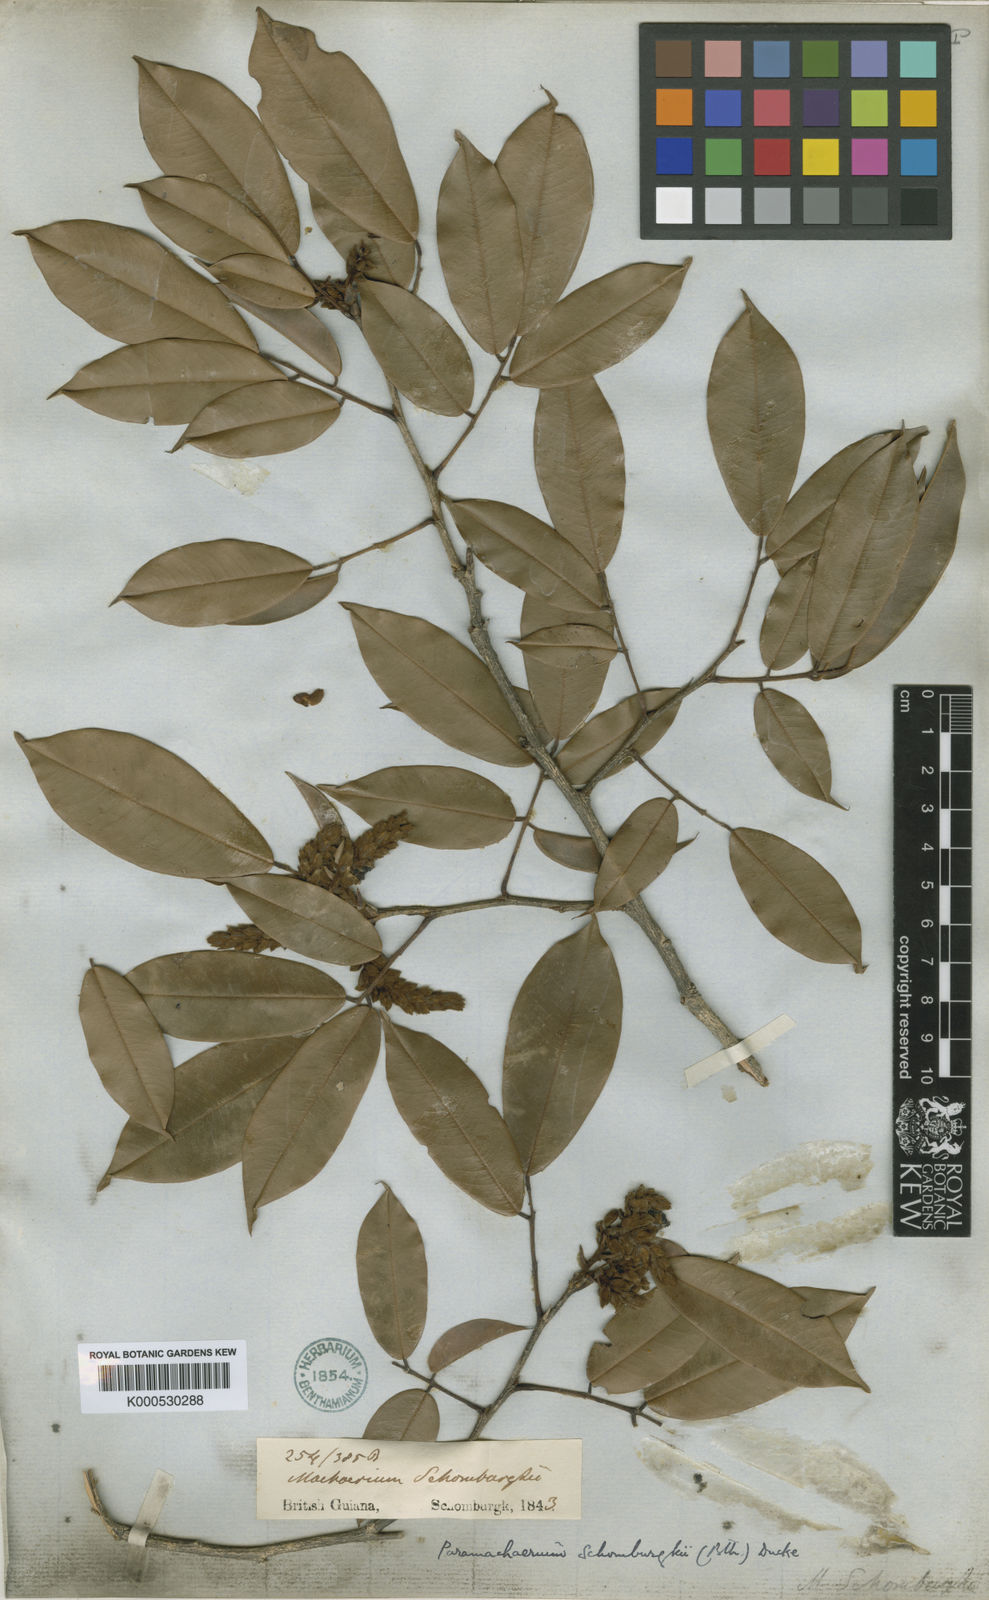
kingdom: Plantae
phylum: Tracheophyta
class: Magnoliopsida
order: Fabales
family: Fabaceae
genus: Paramachaerium
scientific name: Paramachaerium schomburgkii
